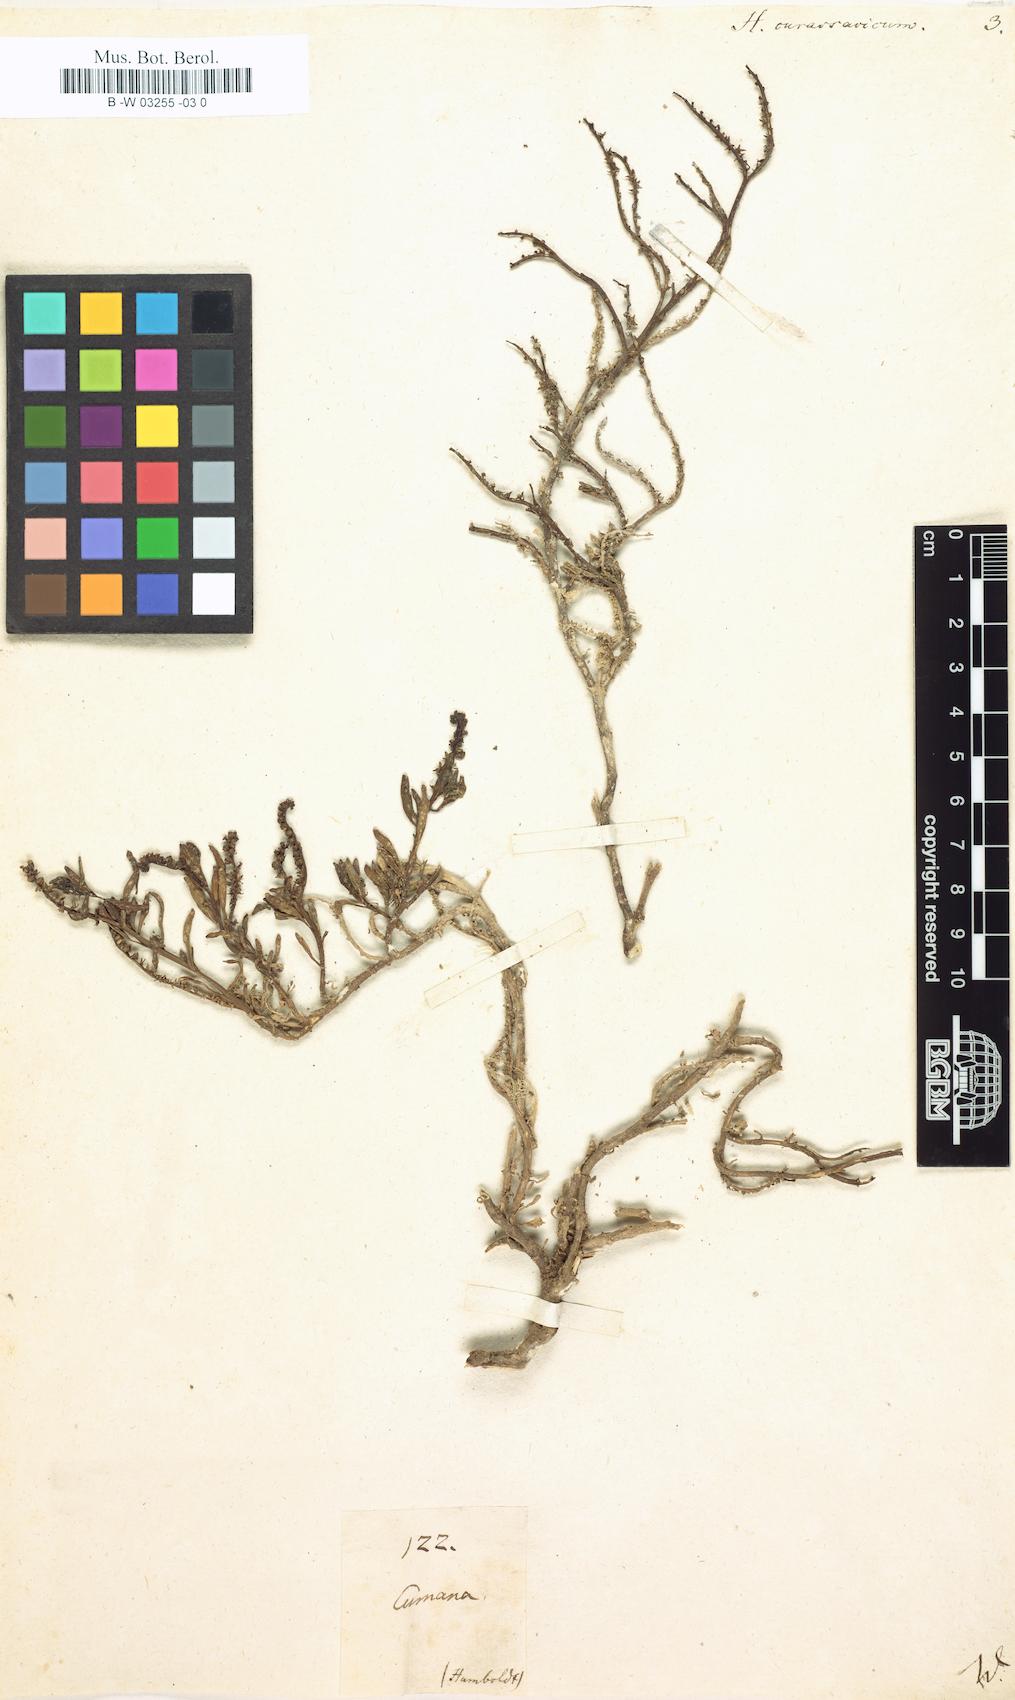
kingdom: Plantae
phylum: Tracheophyta
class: Magnoliopsida
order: Boraginales
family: Heliotropiaceae
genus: Heliotropium
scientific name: Heliotropium curassavicum
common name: Seaside heliotrope
